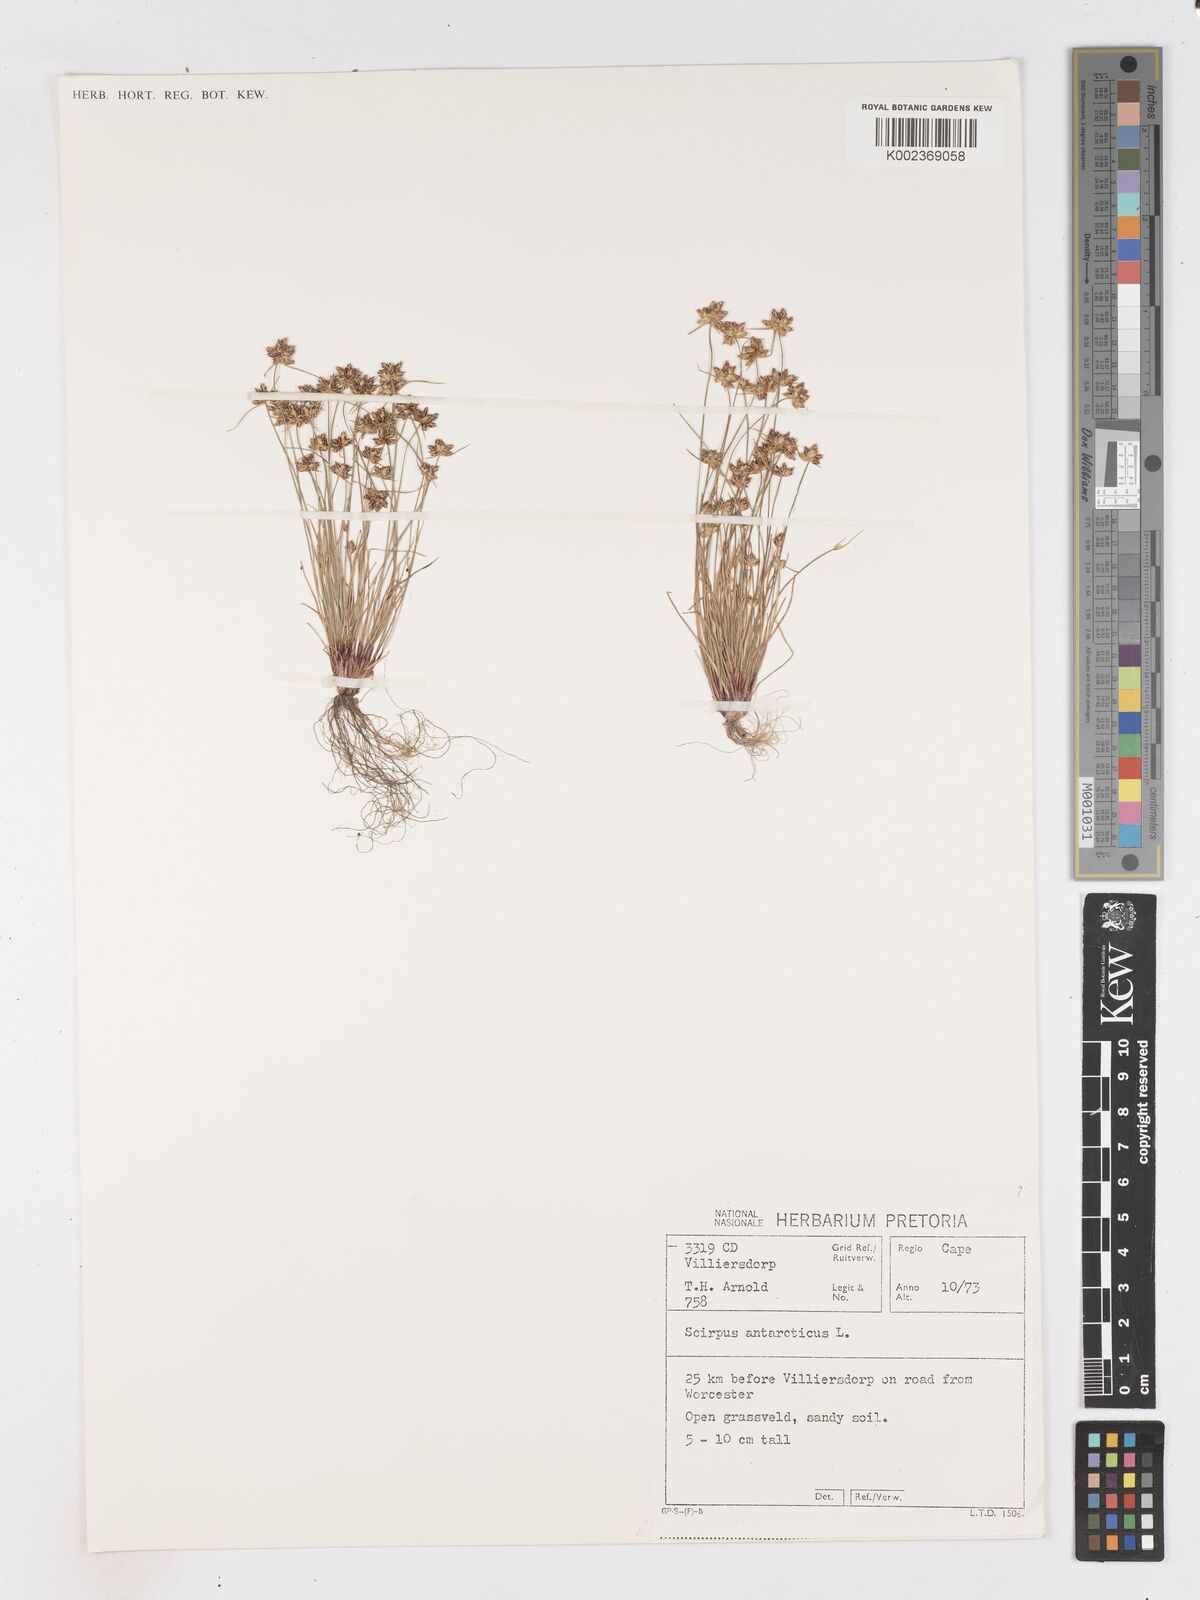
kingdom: Plantae
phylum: Tracheophyta
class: Liliopsida
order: Poales
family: Cyperaceae
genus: Isolepis
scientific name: Isolepis diabolica
